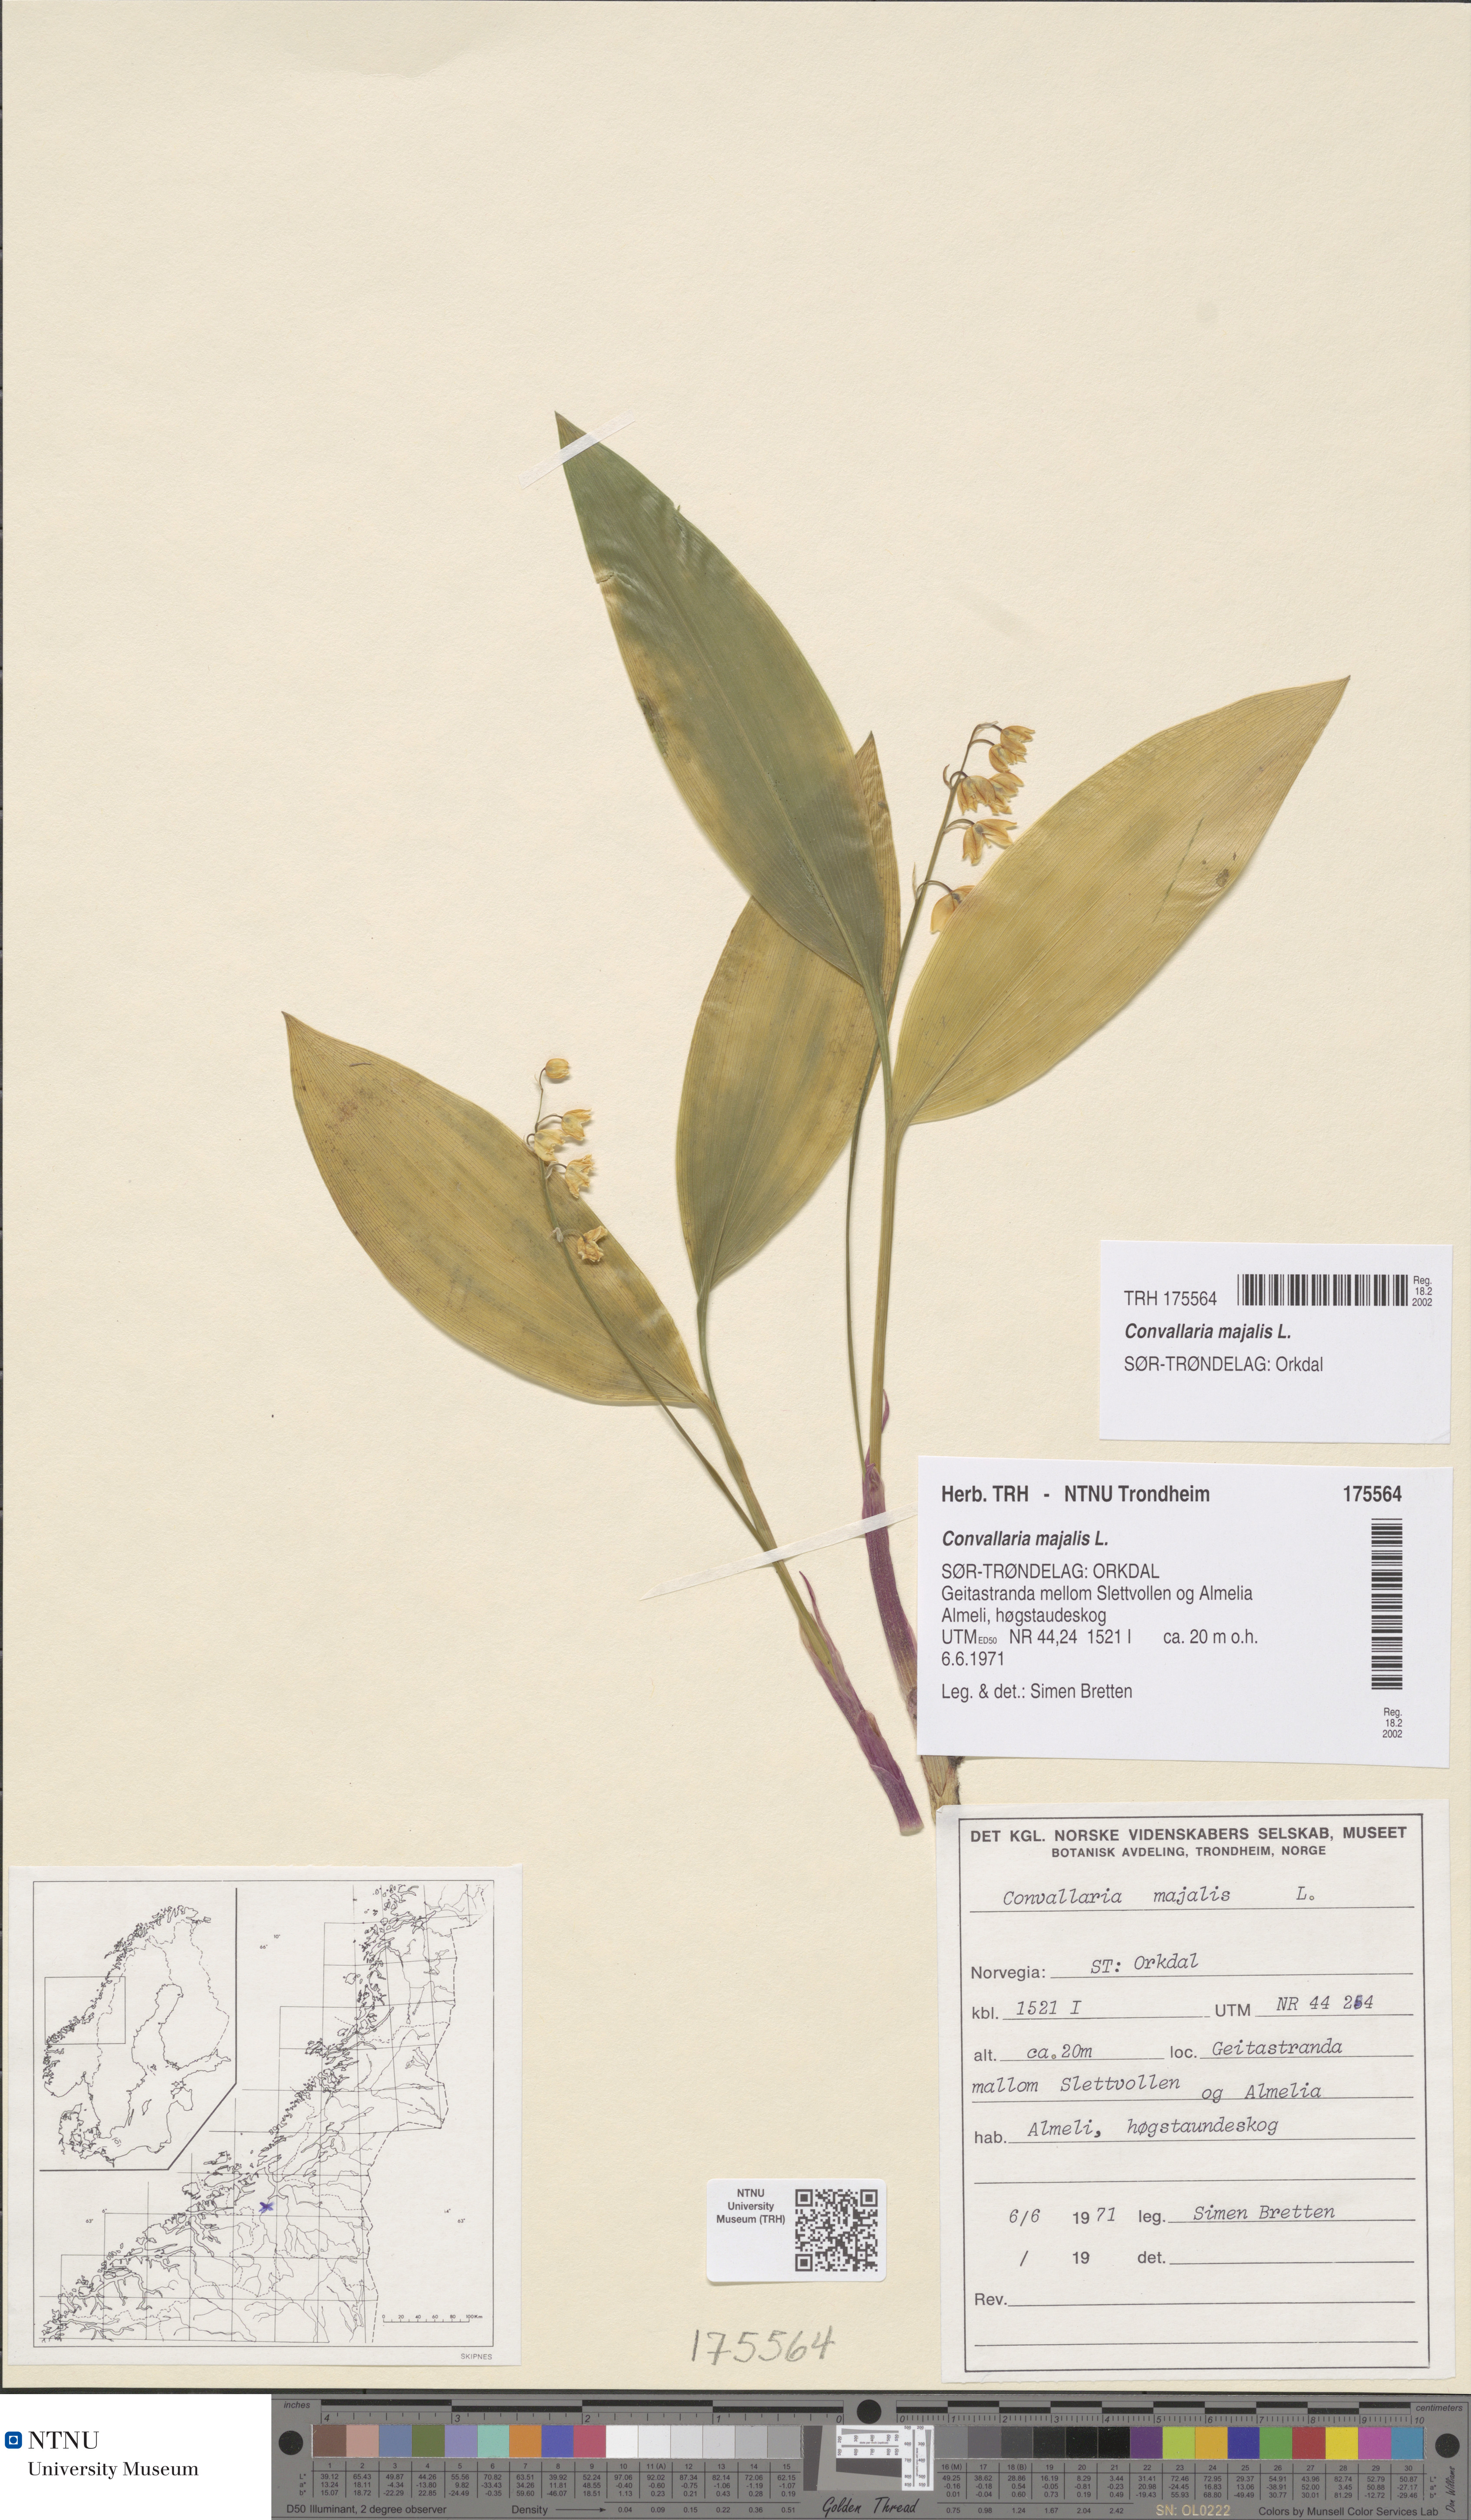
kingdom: Plantae
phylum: Tracheophyta
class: Liliopsida
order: Asparagales
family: Asparagaceae
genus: Convallaria
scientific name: Convallaria majalis
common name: Lily-of-the-valley
